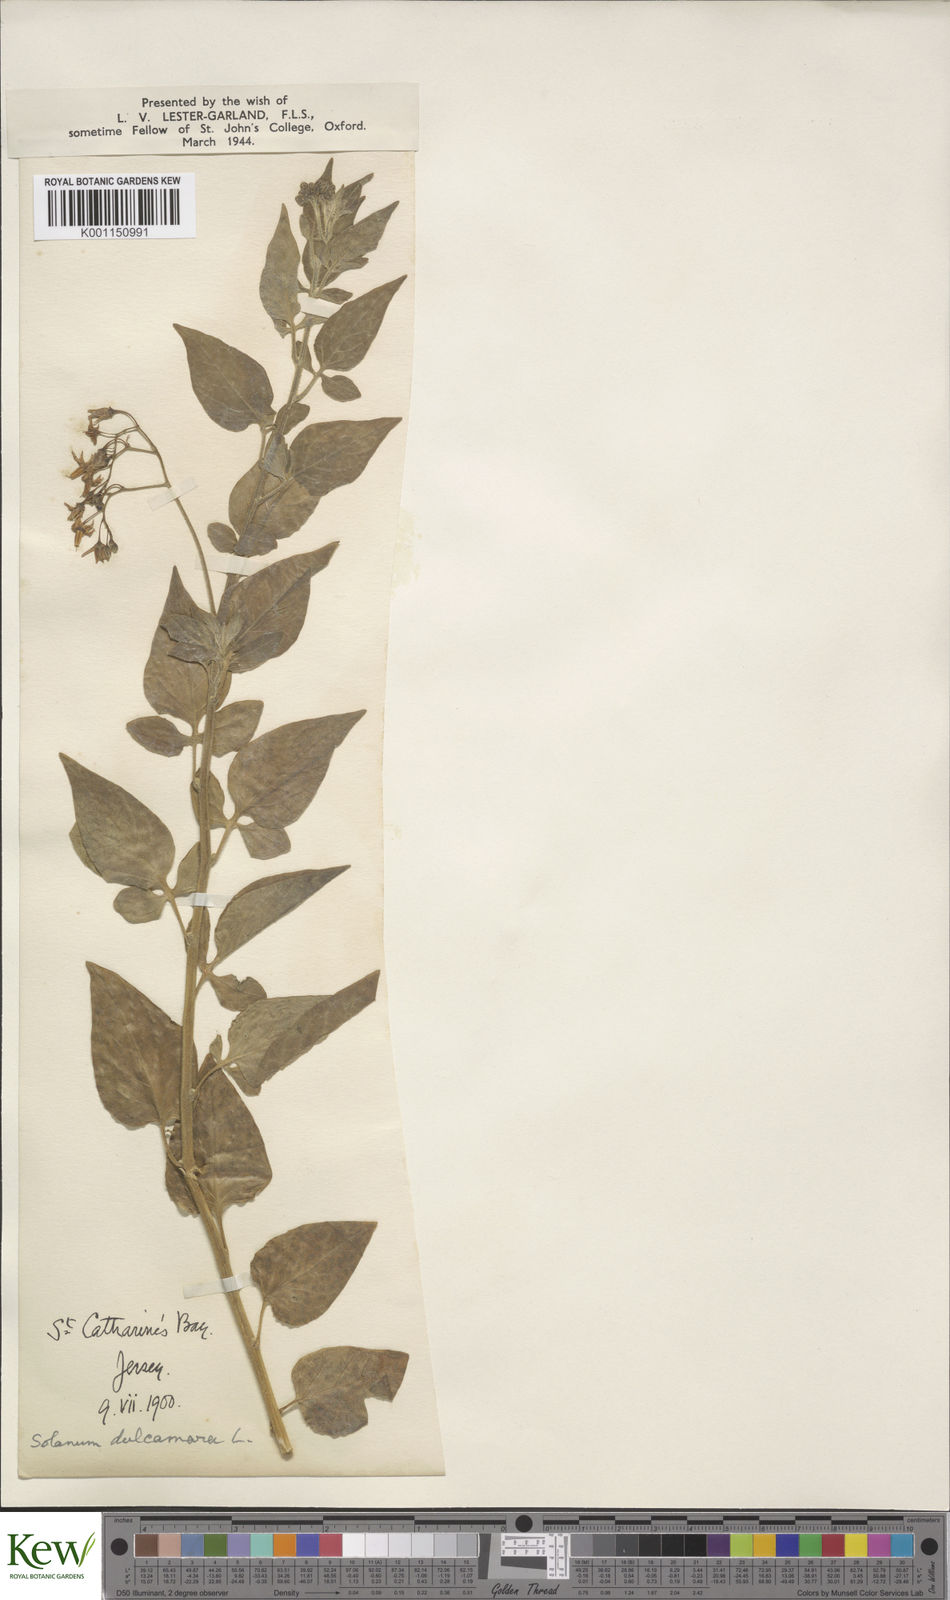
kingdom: Plantae
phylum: Tracheophyta
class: Magnoliopsida
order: Solanales
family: Solanaceae
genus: Solanum
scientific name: Solanum dulcamara
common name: Climbing nightshade
